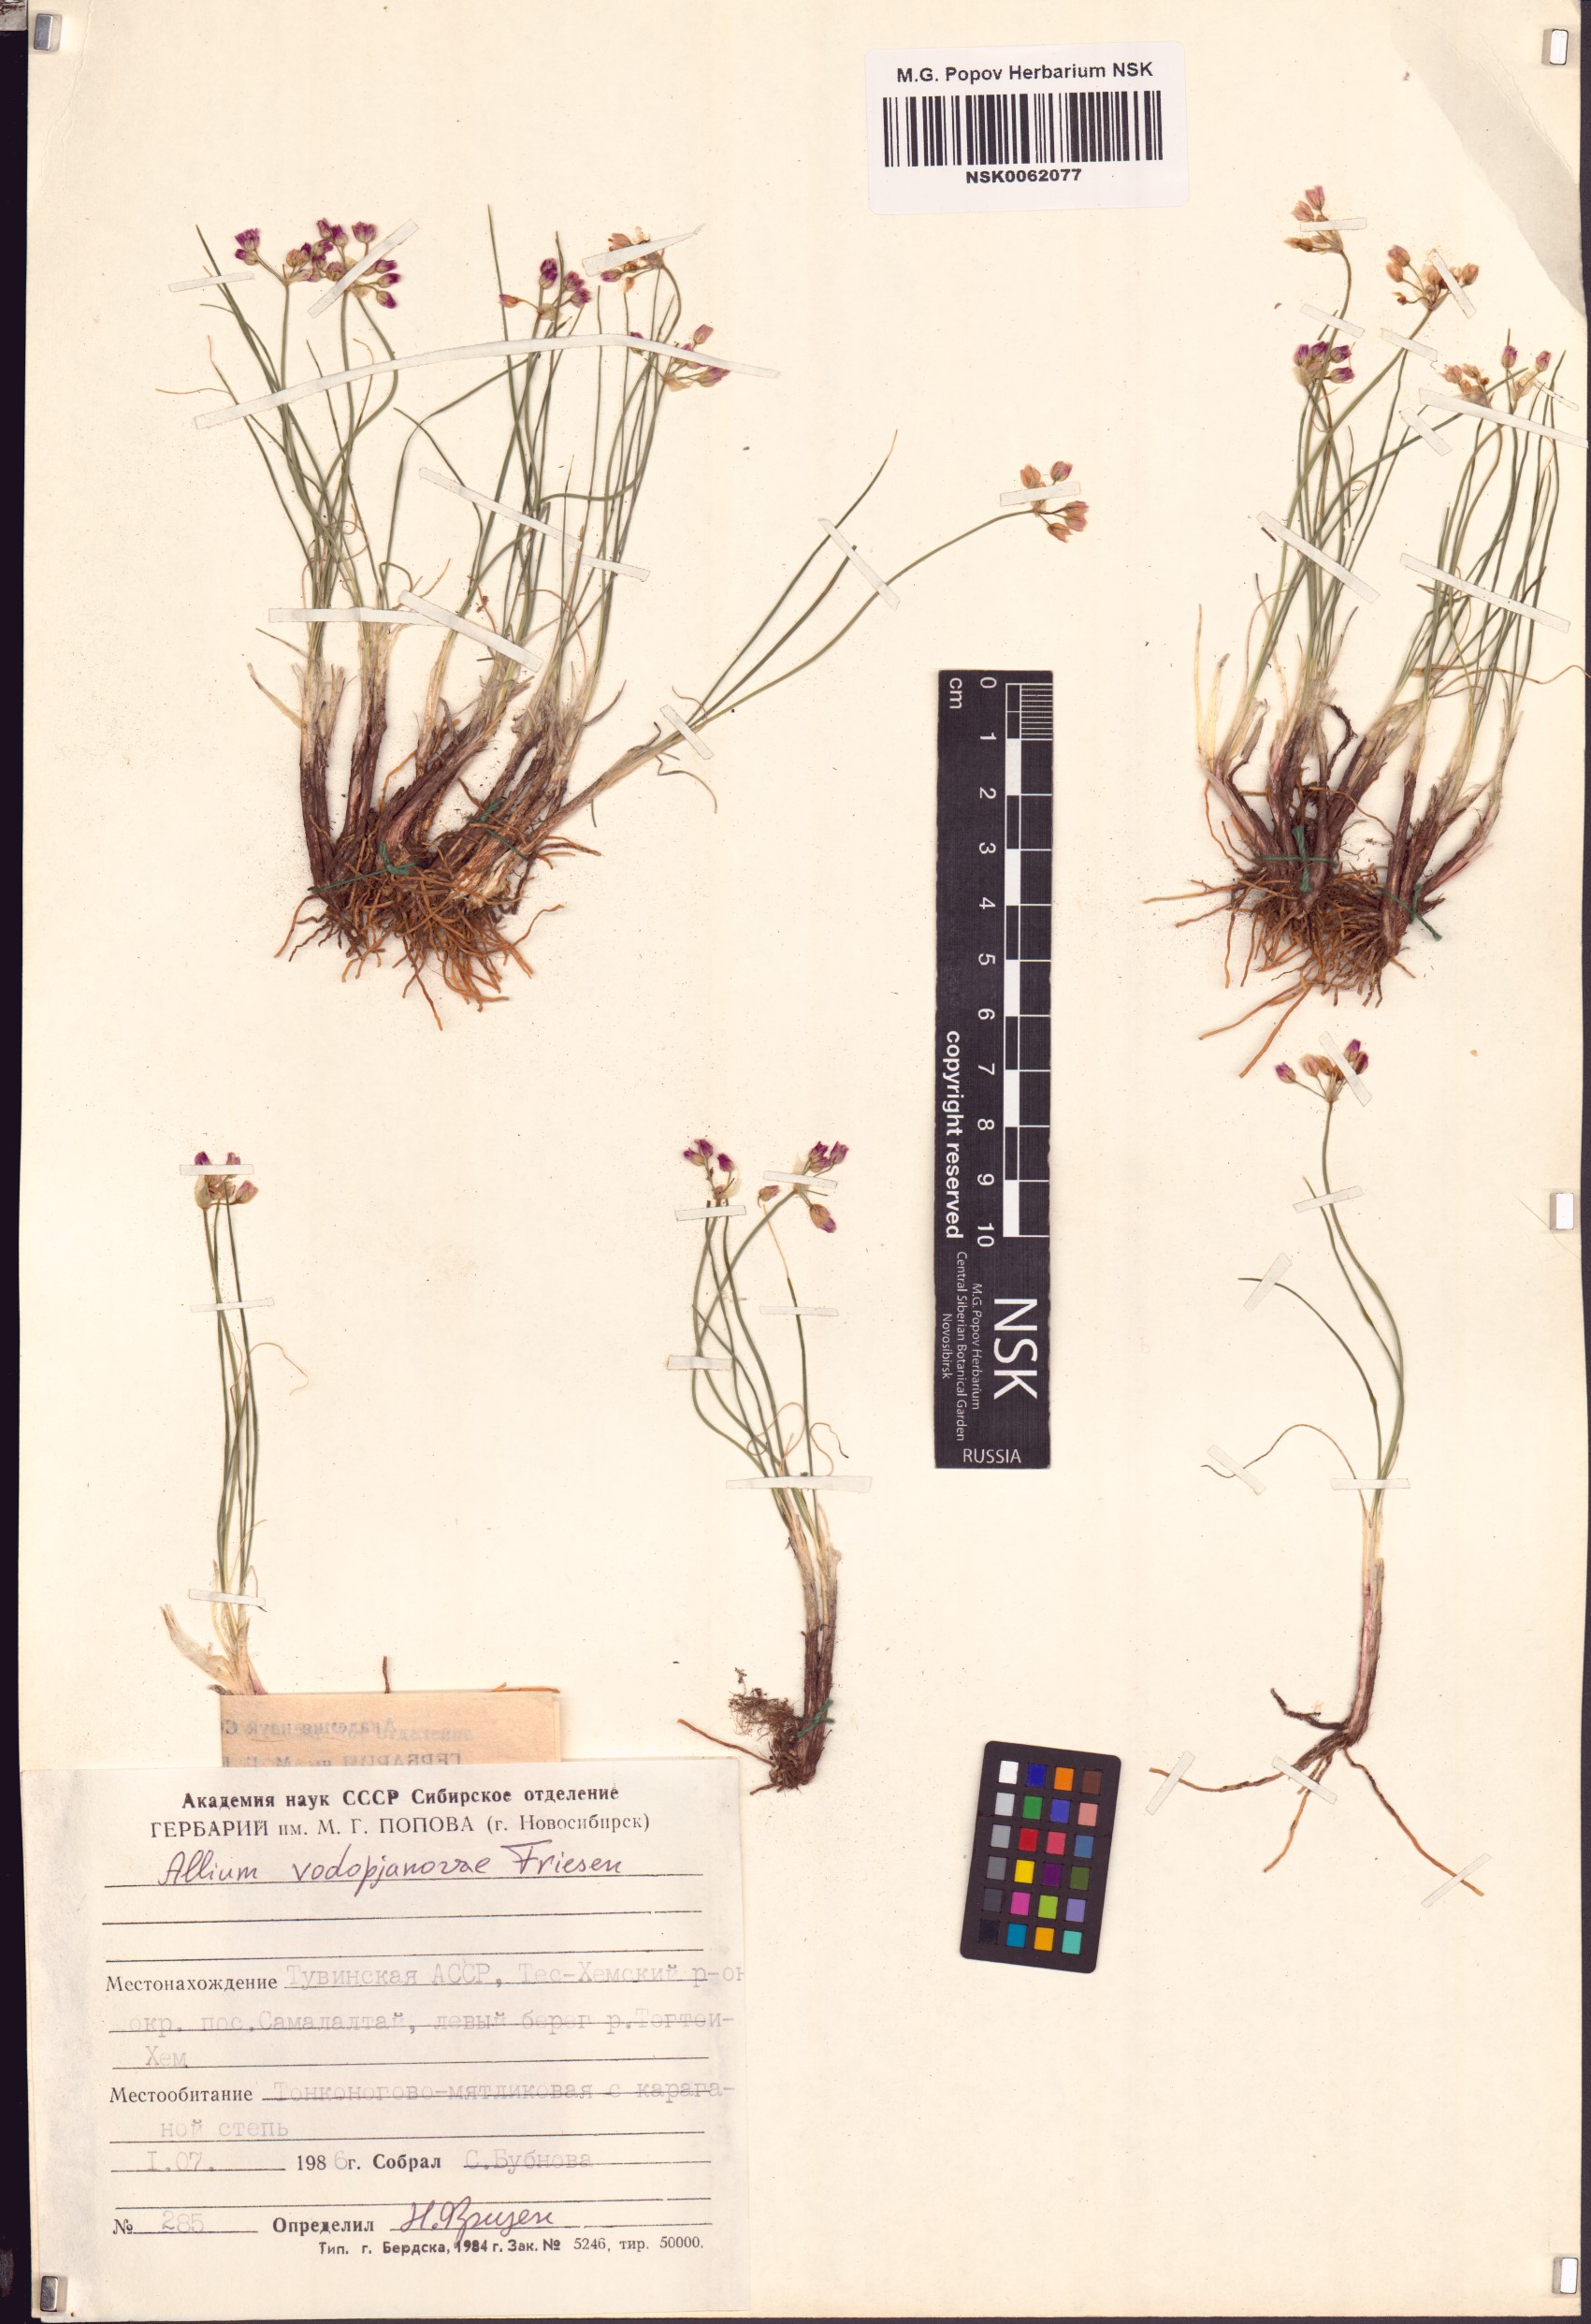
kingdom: Plantae
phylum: Tracheophyta
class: Liliopsida
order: Asparagales
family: Amaryllidaceae
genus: Allium
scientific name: Allium vodopjanovae
